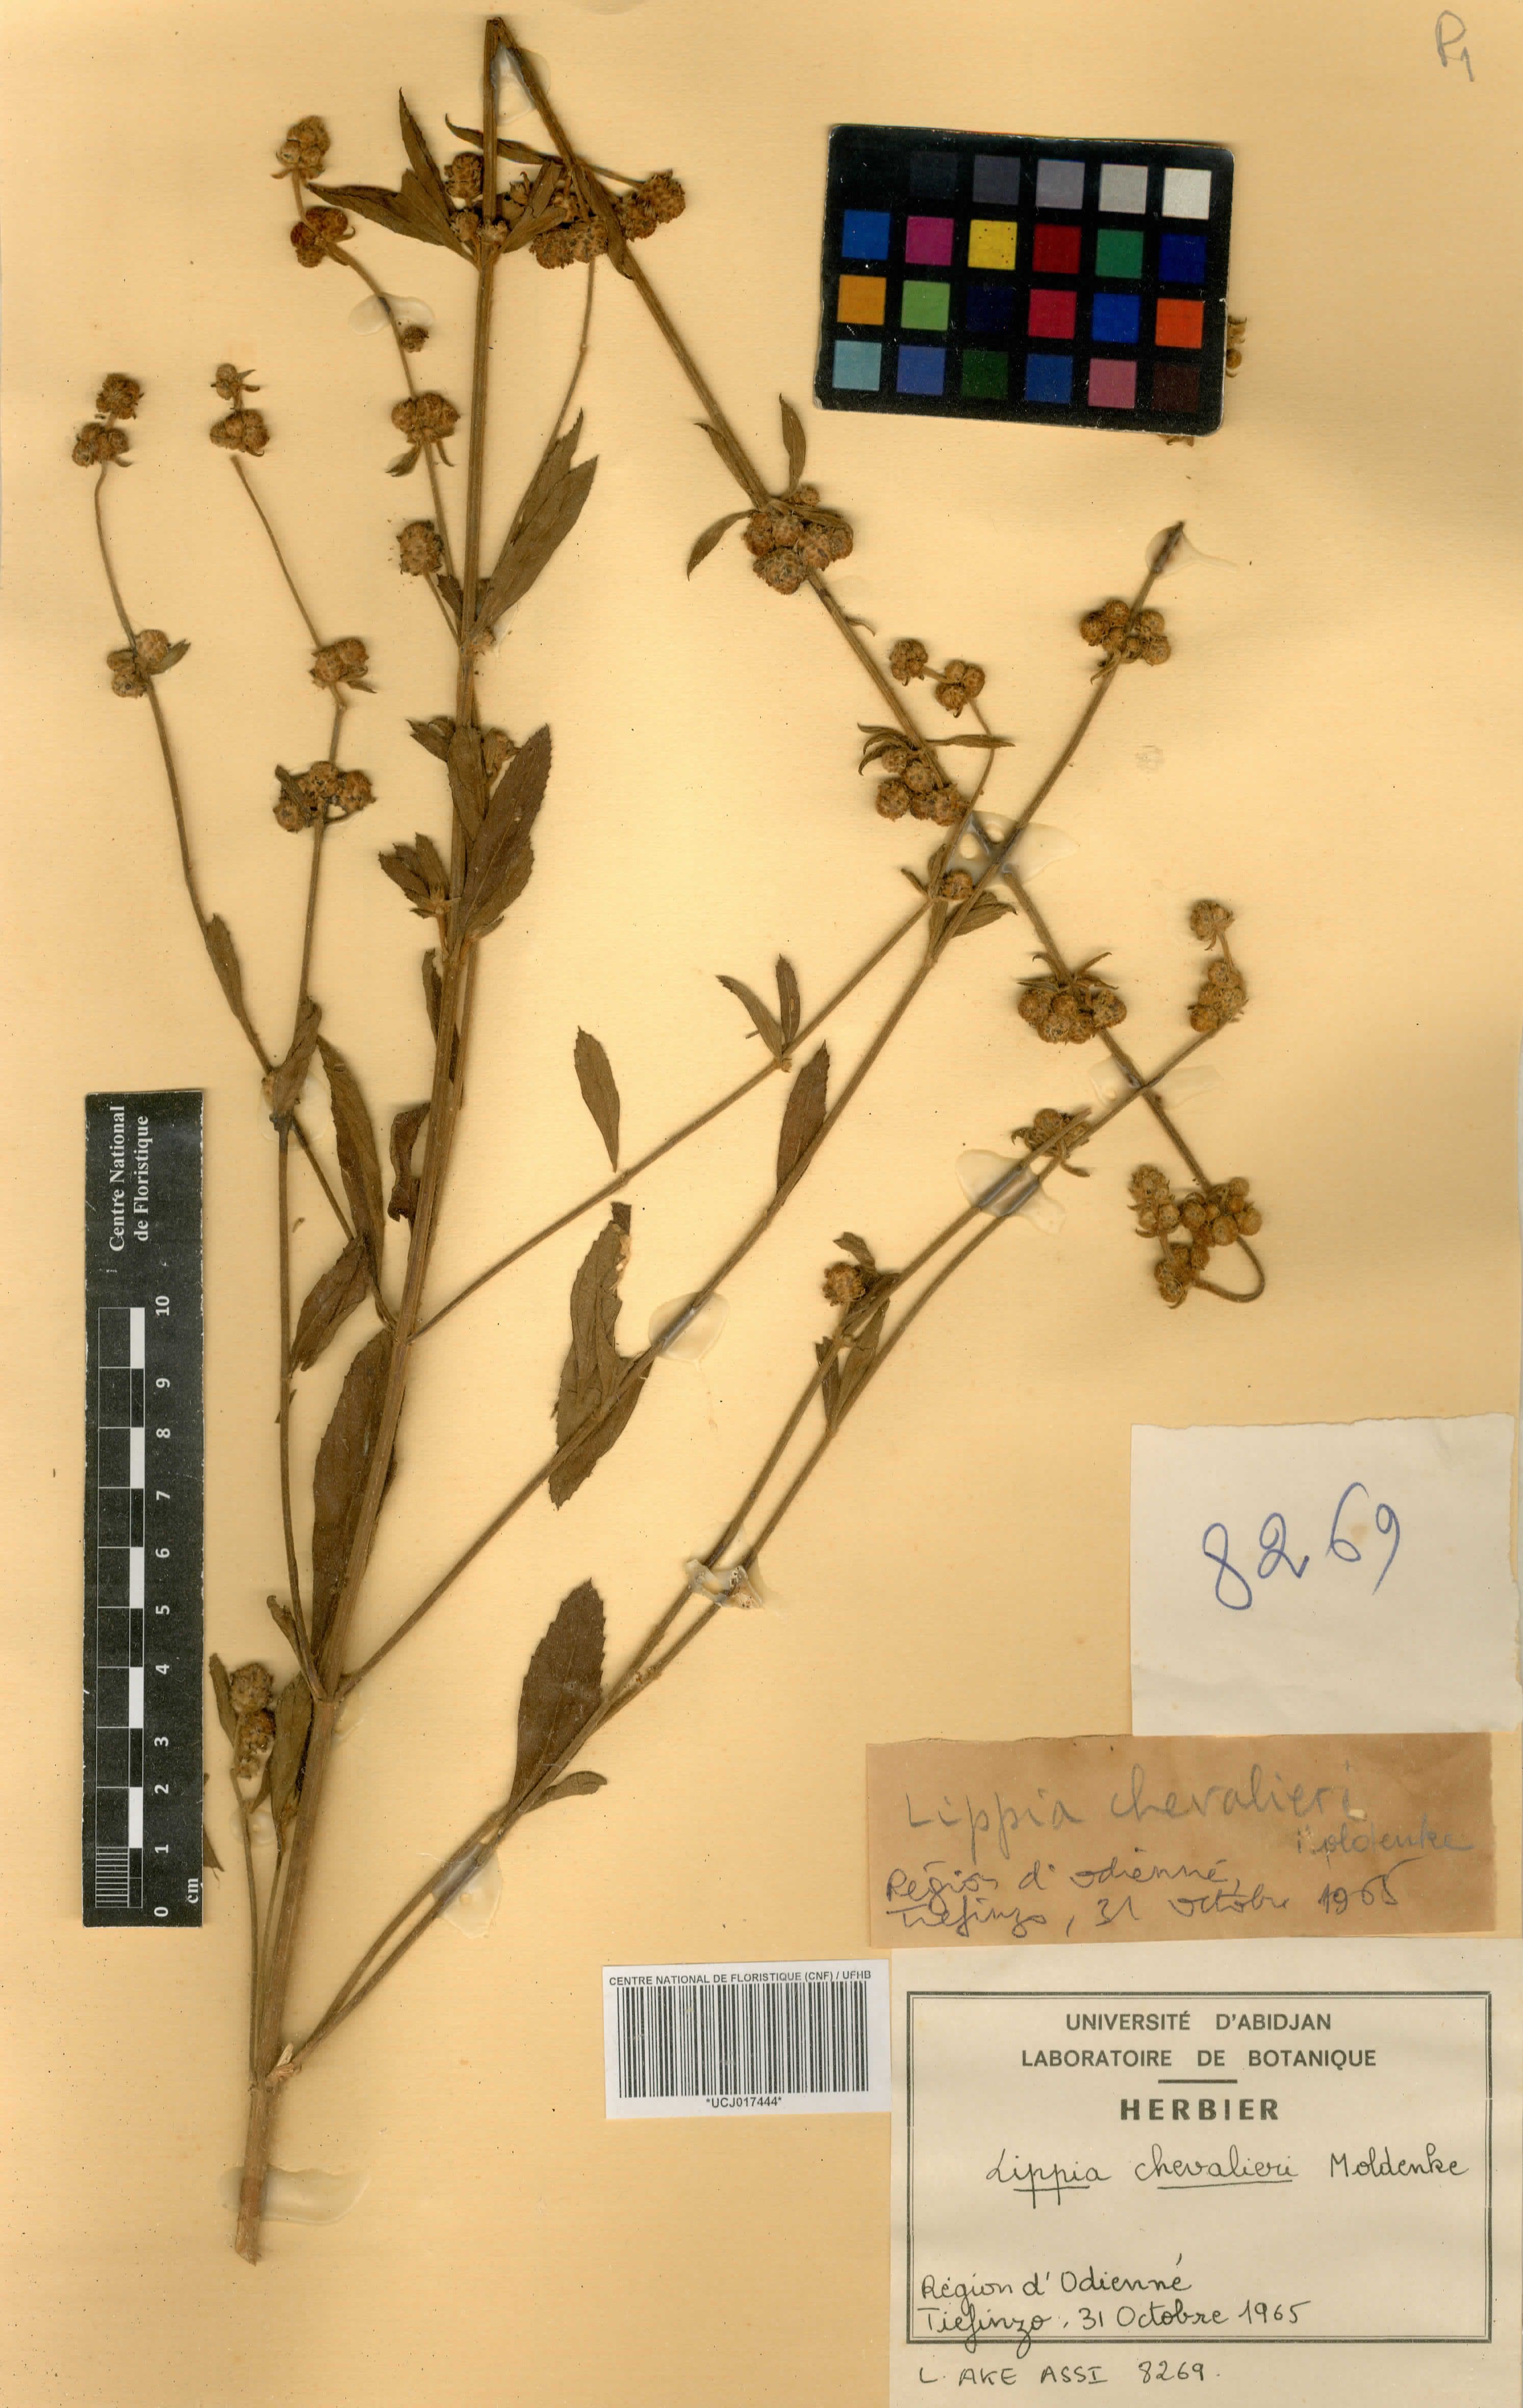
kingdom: Plantae
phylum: Tracheophyta
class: Magnoliopsida
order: Lamiales
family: Verbenaceae
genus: Lippia
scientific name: Lippia chevalieri
